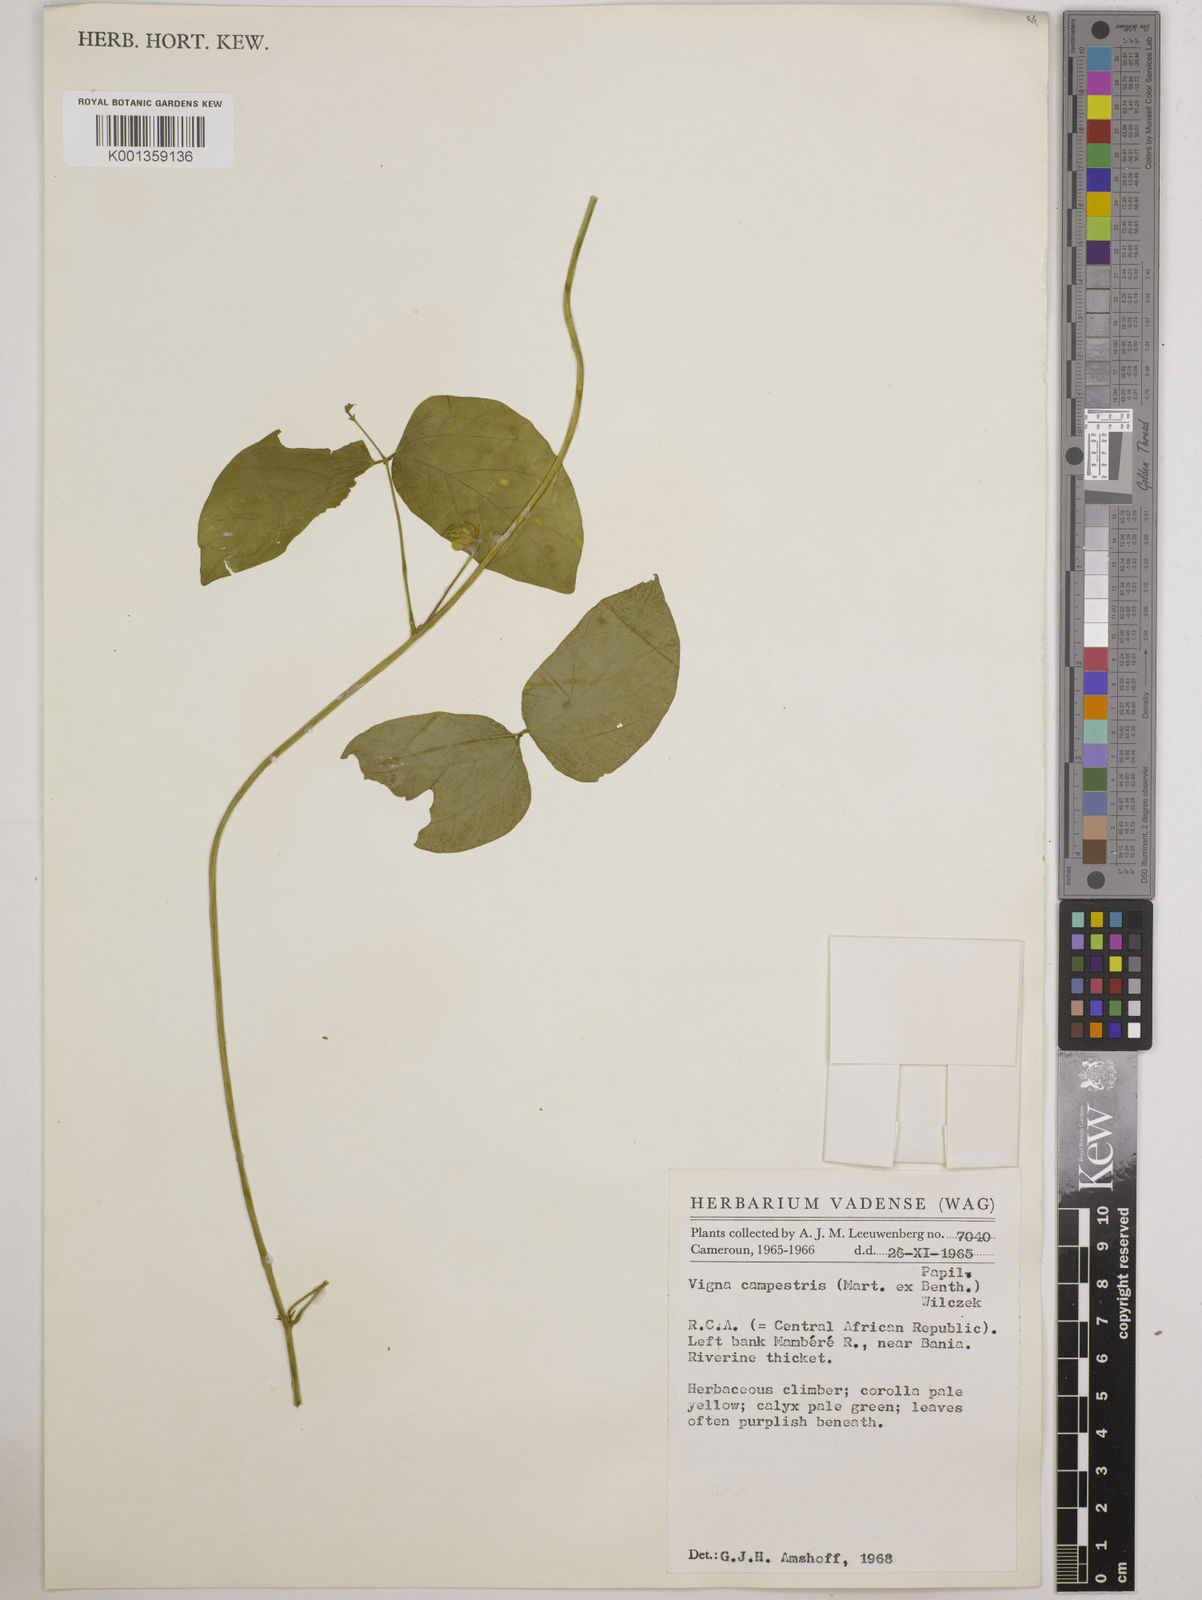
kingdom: Plantae
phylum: Tracheophyta
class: Magnoliopsida
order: Fabales
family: Fabaceae
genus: Vigna
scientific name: Vigna juruana
